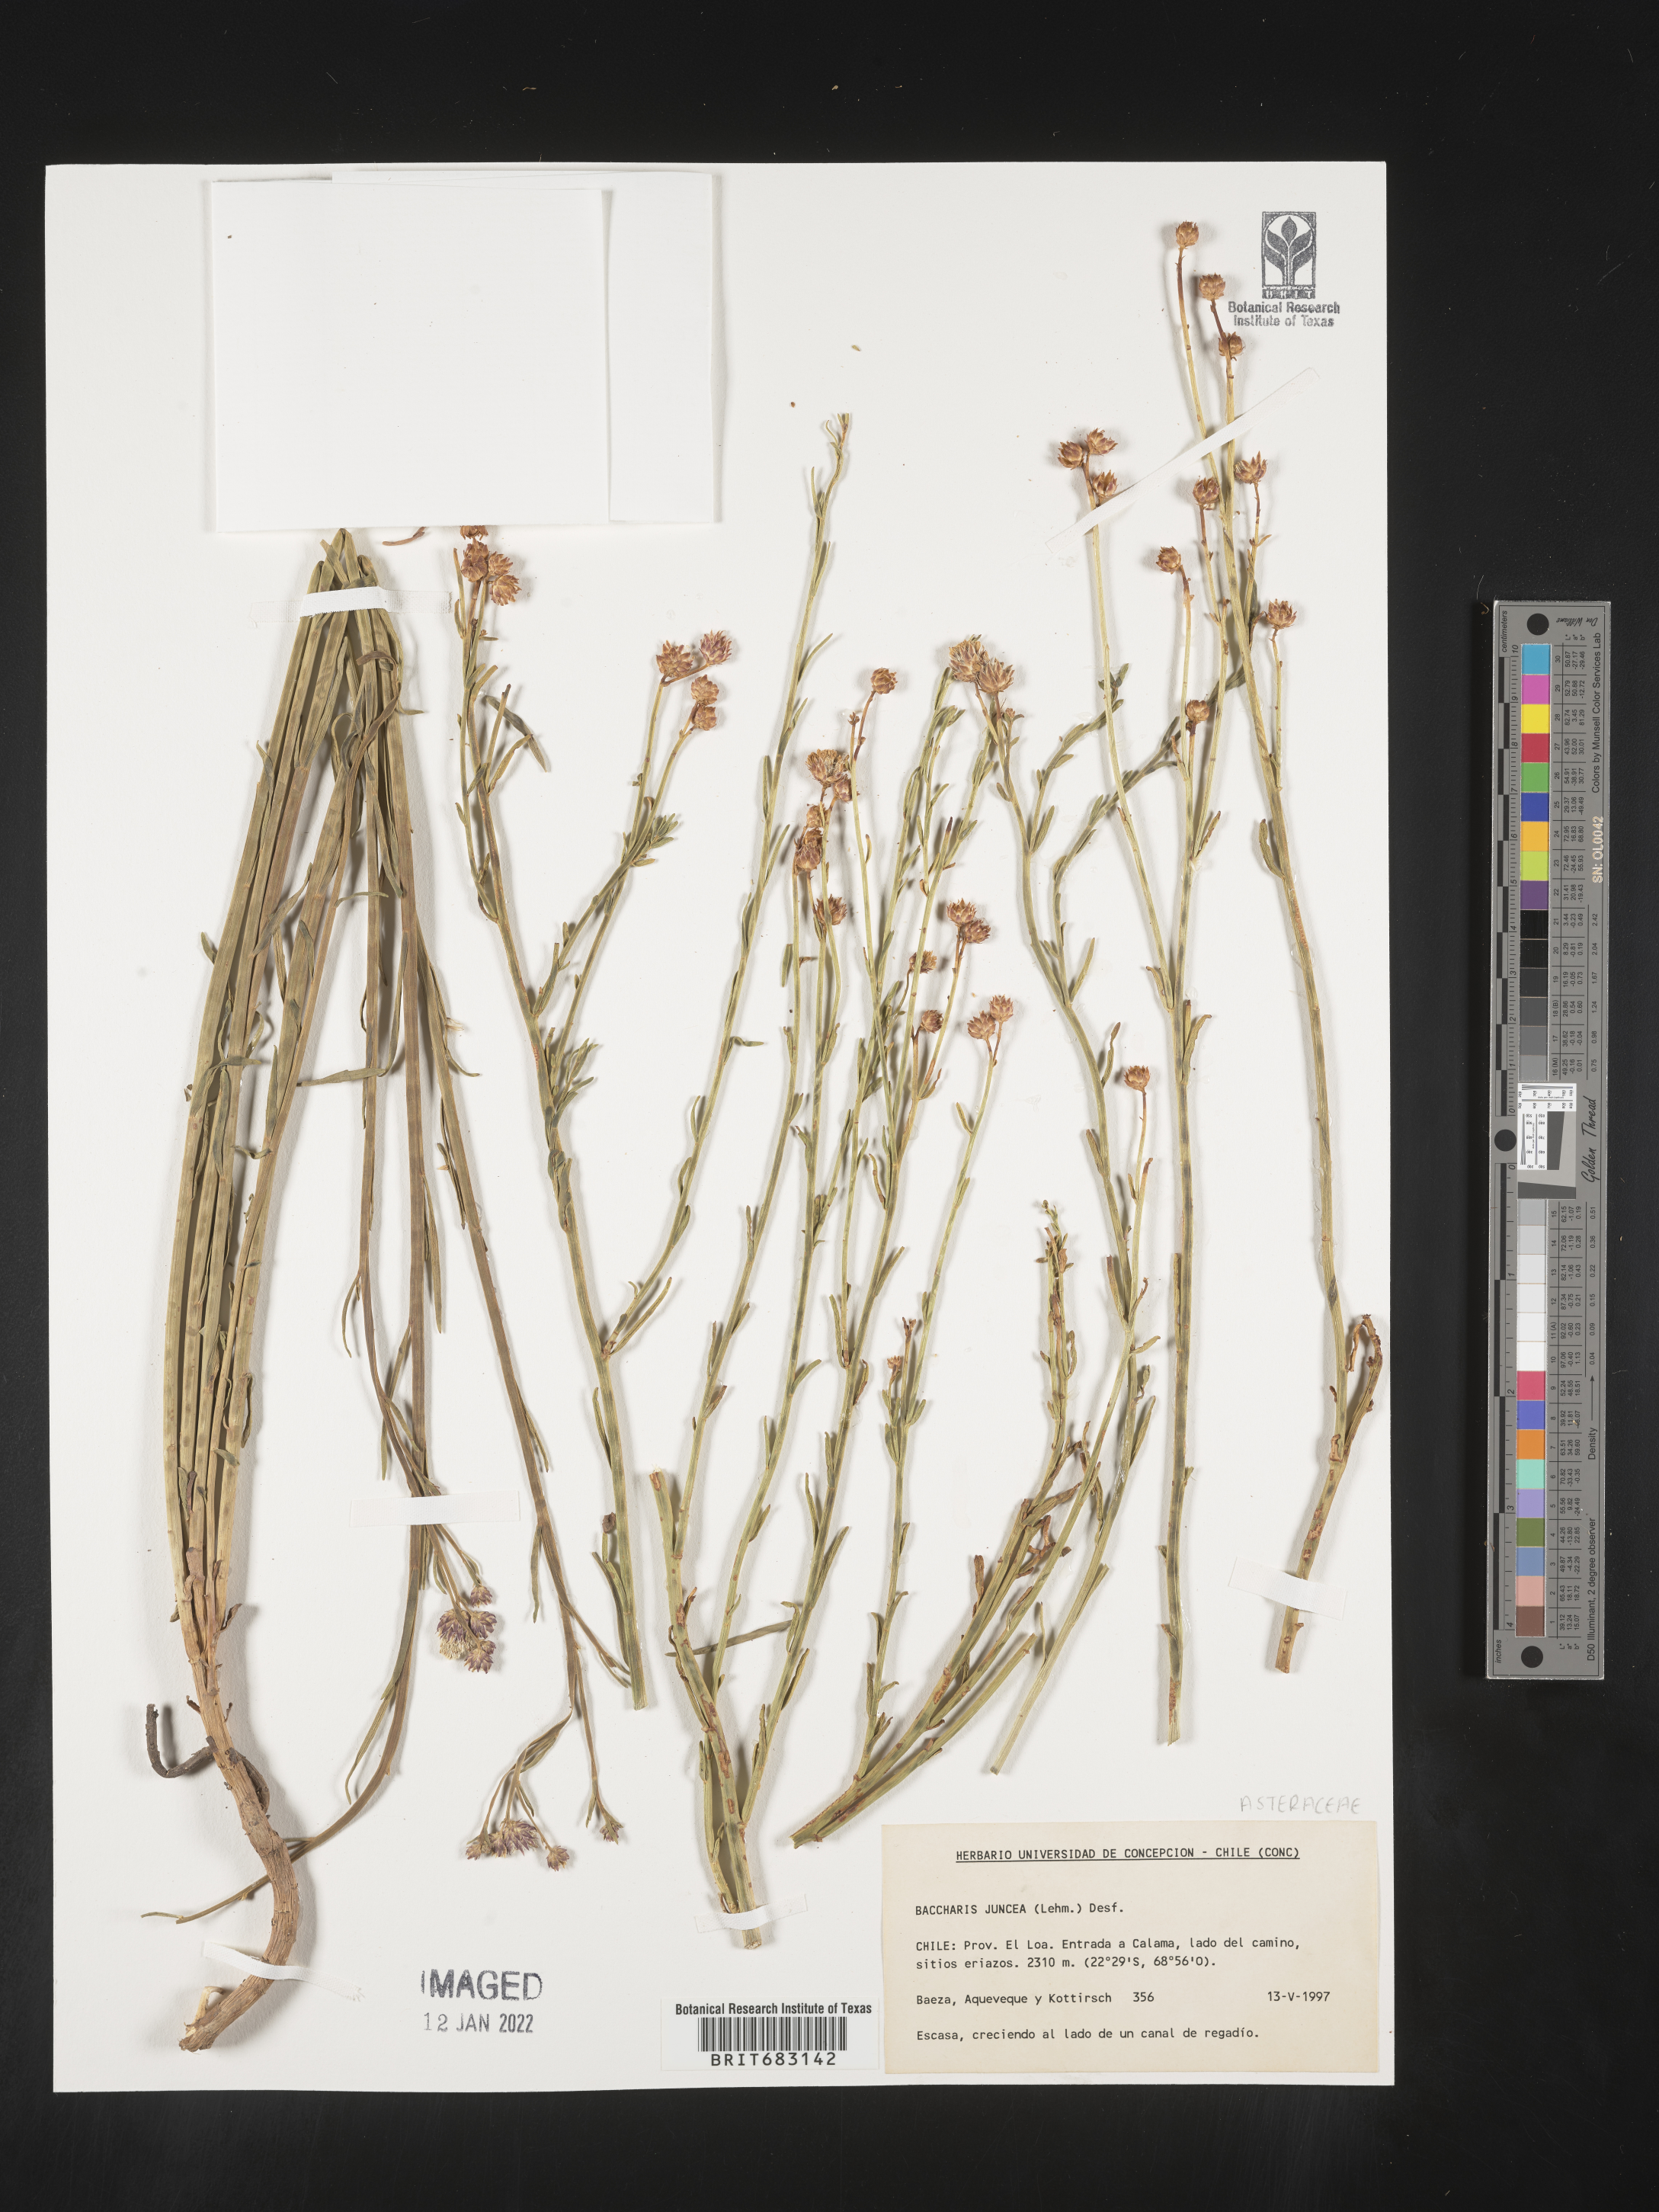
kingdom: Plantae
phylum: Tracheophyta
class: Magnoliopsida
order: Asterales
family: Asteraceae
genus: Baccharis
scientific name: Baccharis
